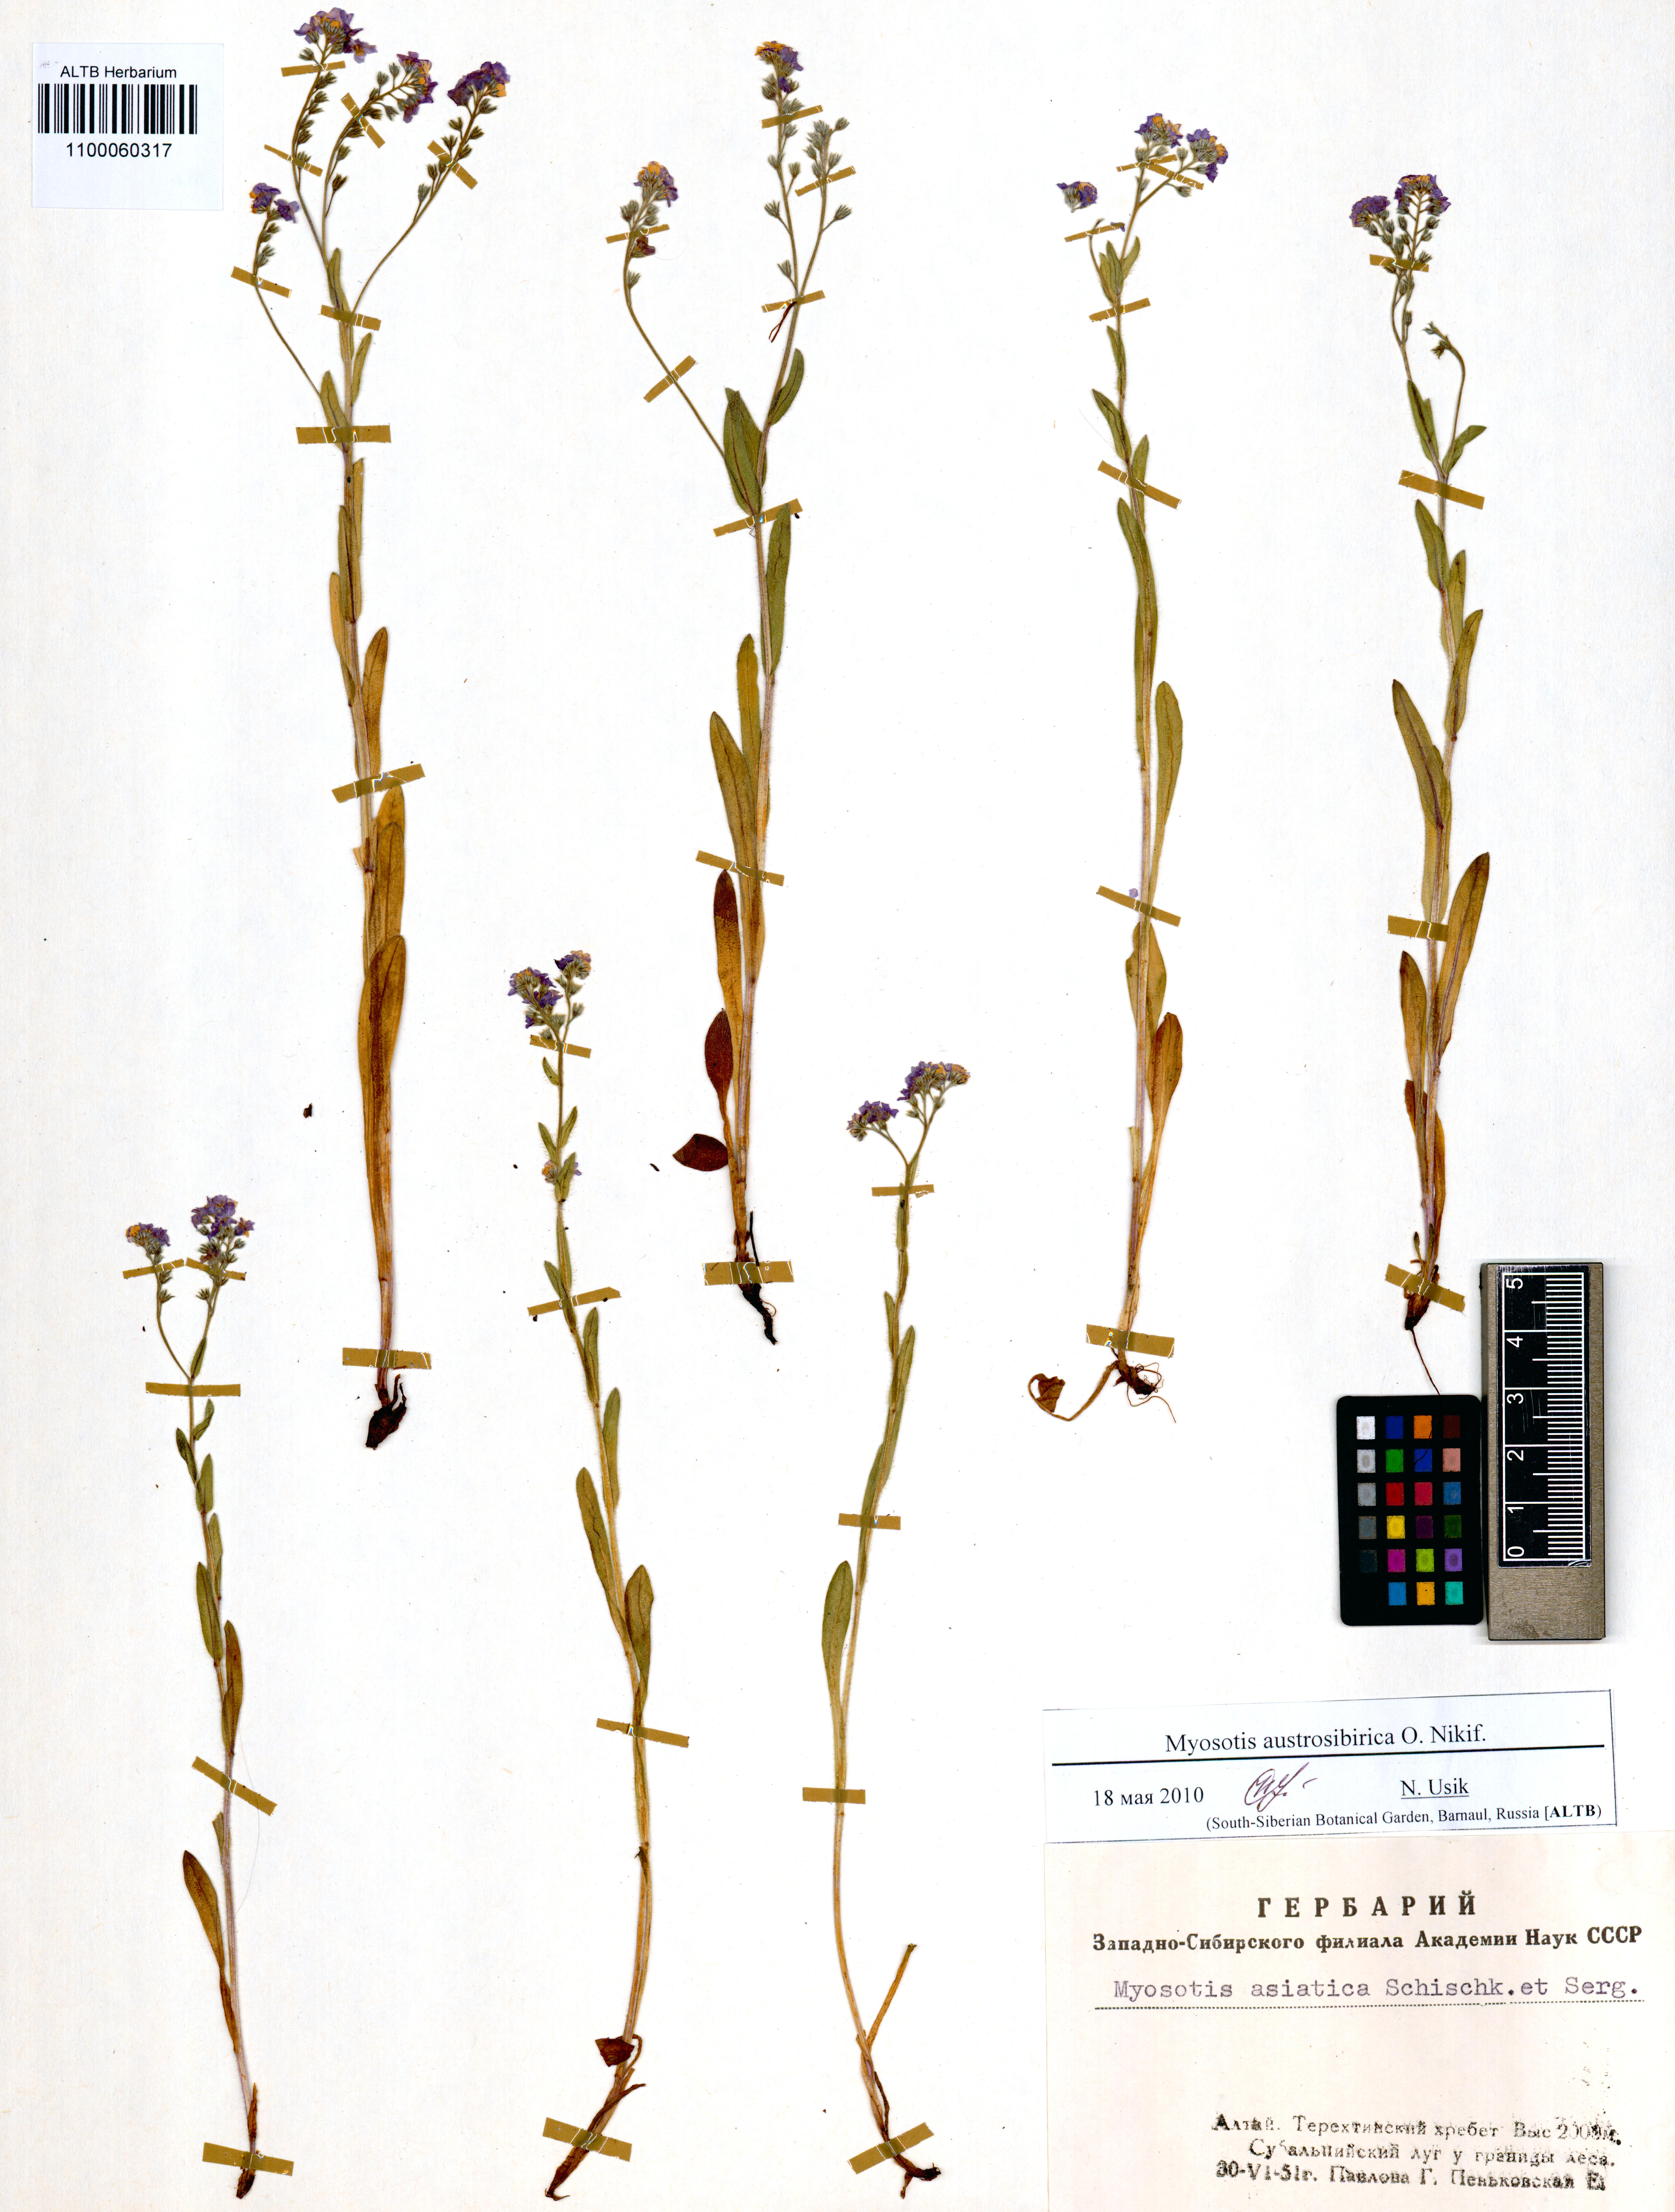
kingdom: Plantae
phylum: Tracheophyta
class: Magnoliopsida
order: Boraginales
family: Boraginaceae
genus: Myosotis
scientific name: Myosotis austrosibirica
